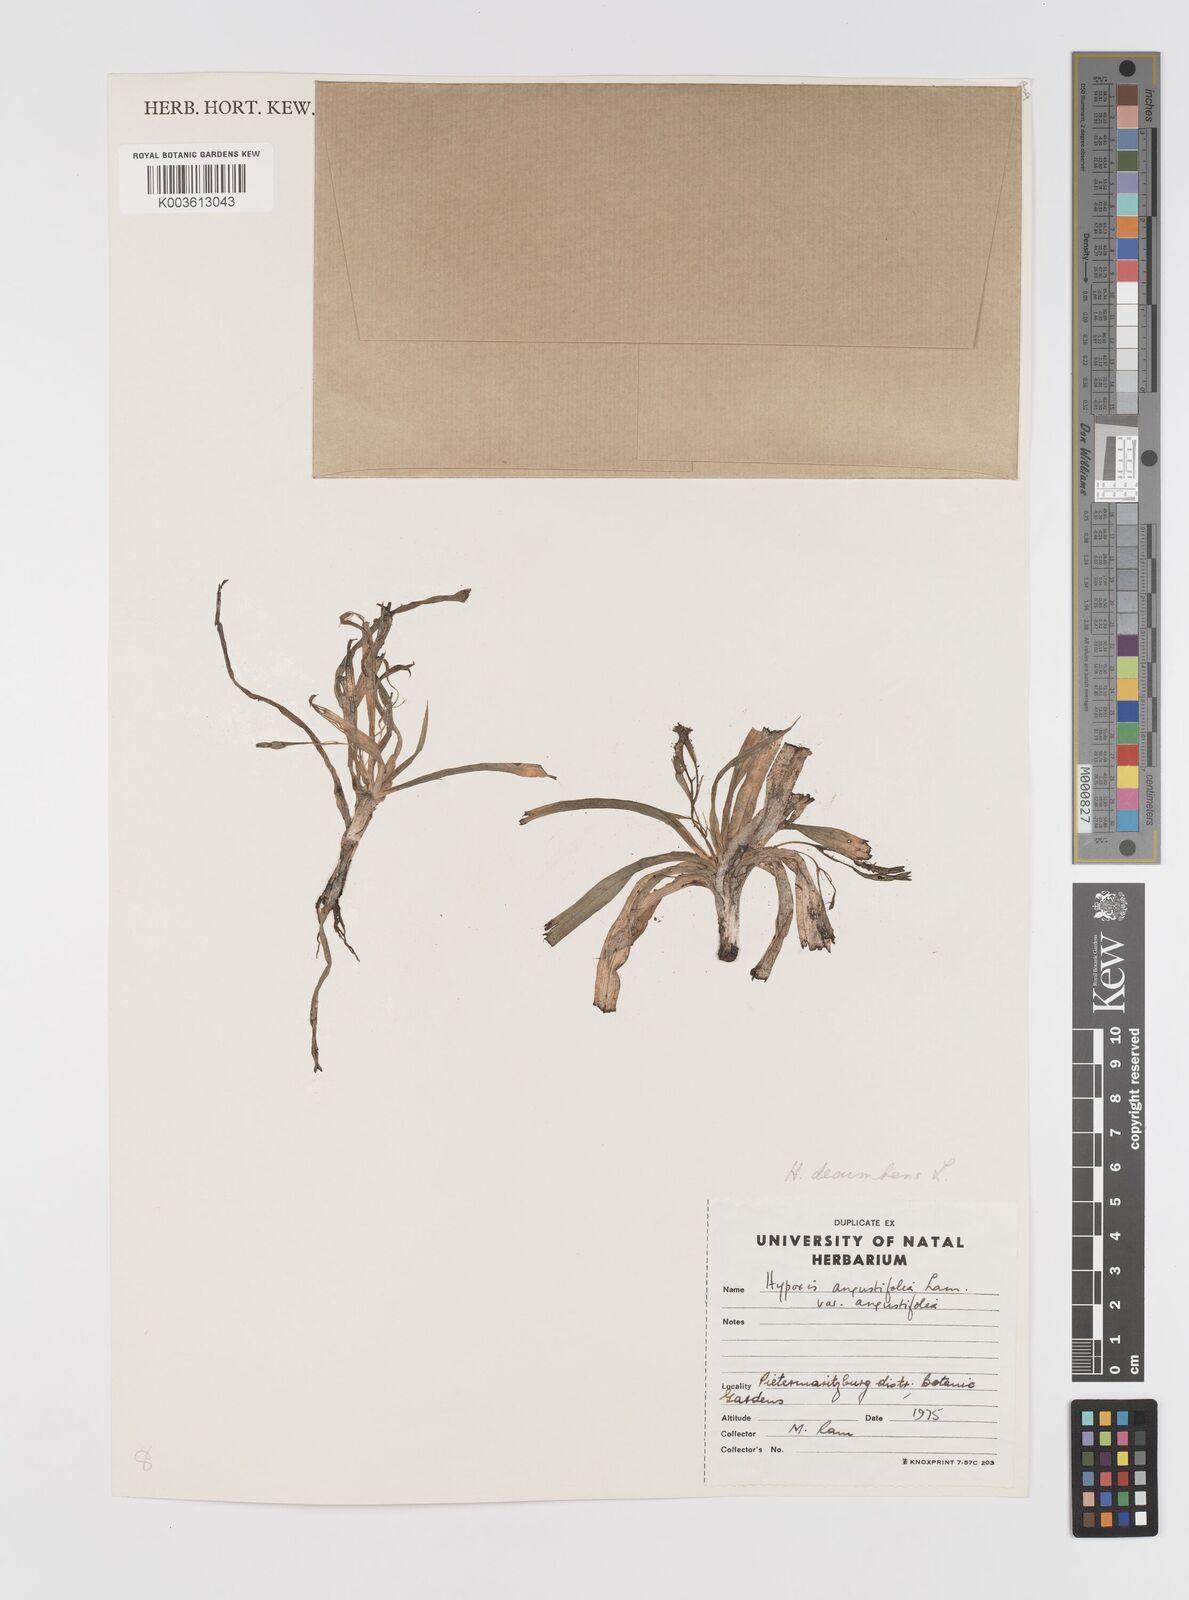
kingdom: Plantae
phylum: Tracheophyta
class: Liliopsida
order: Asparagales
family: Hypoxidaceae
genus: Hypoxis
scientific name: Hypoxis decumbens
